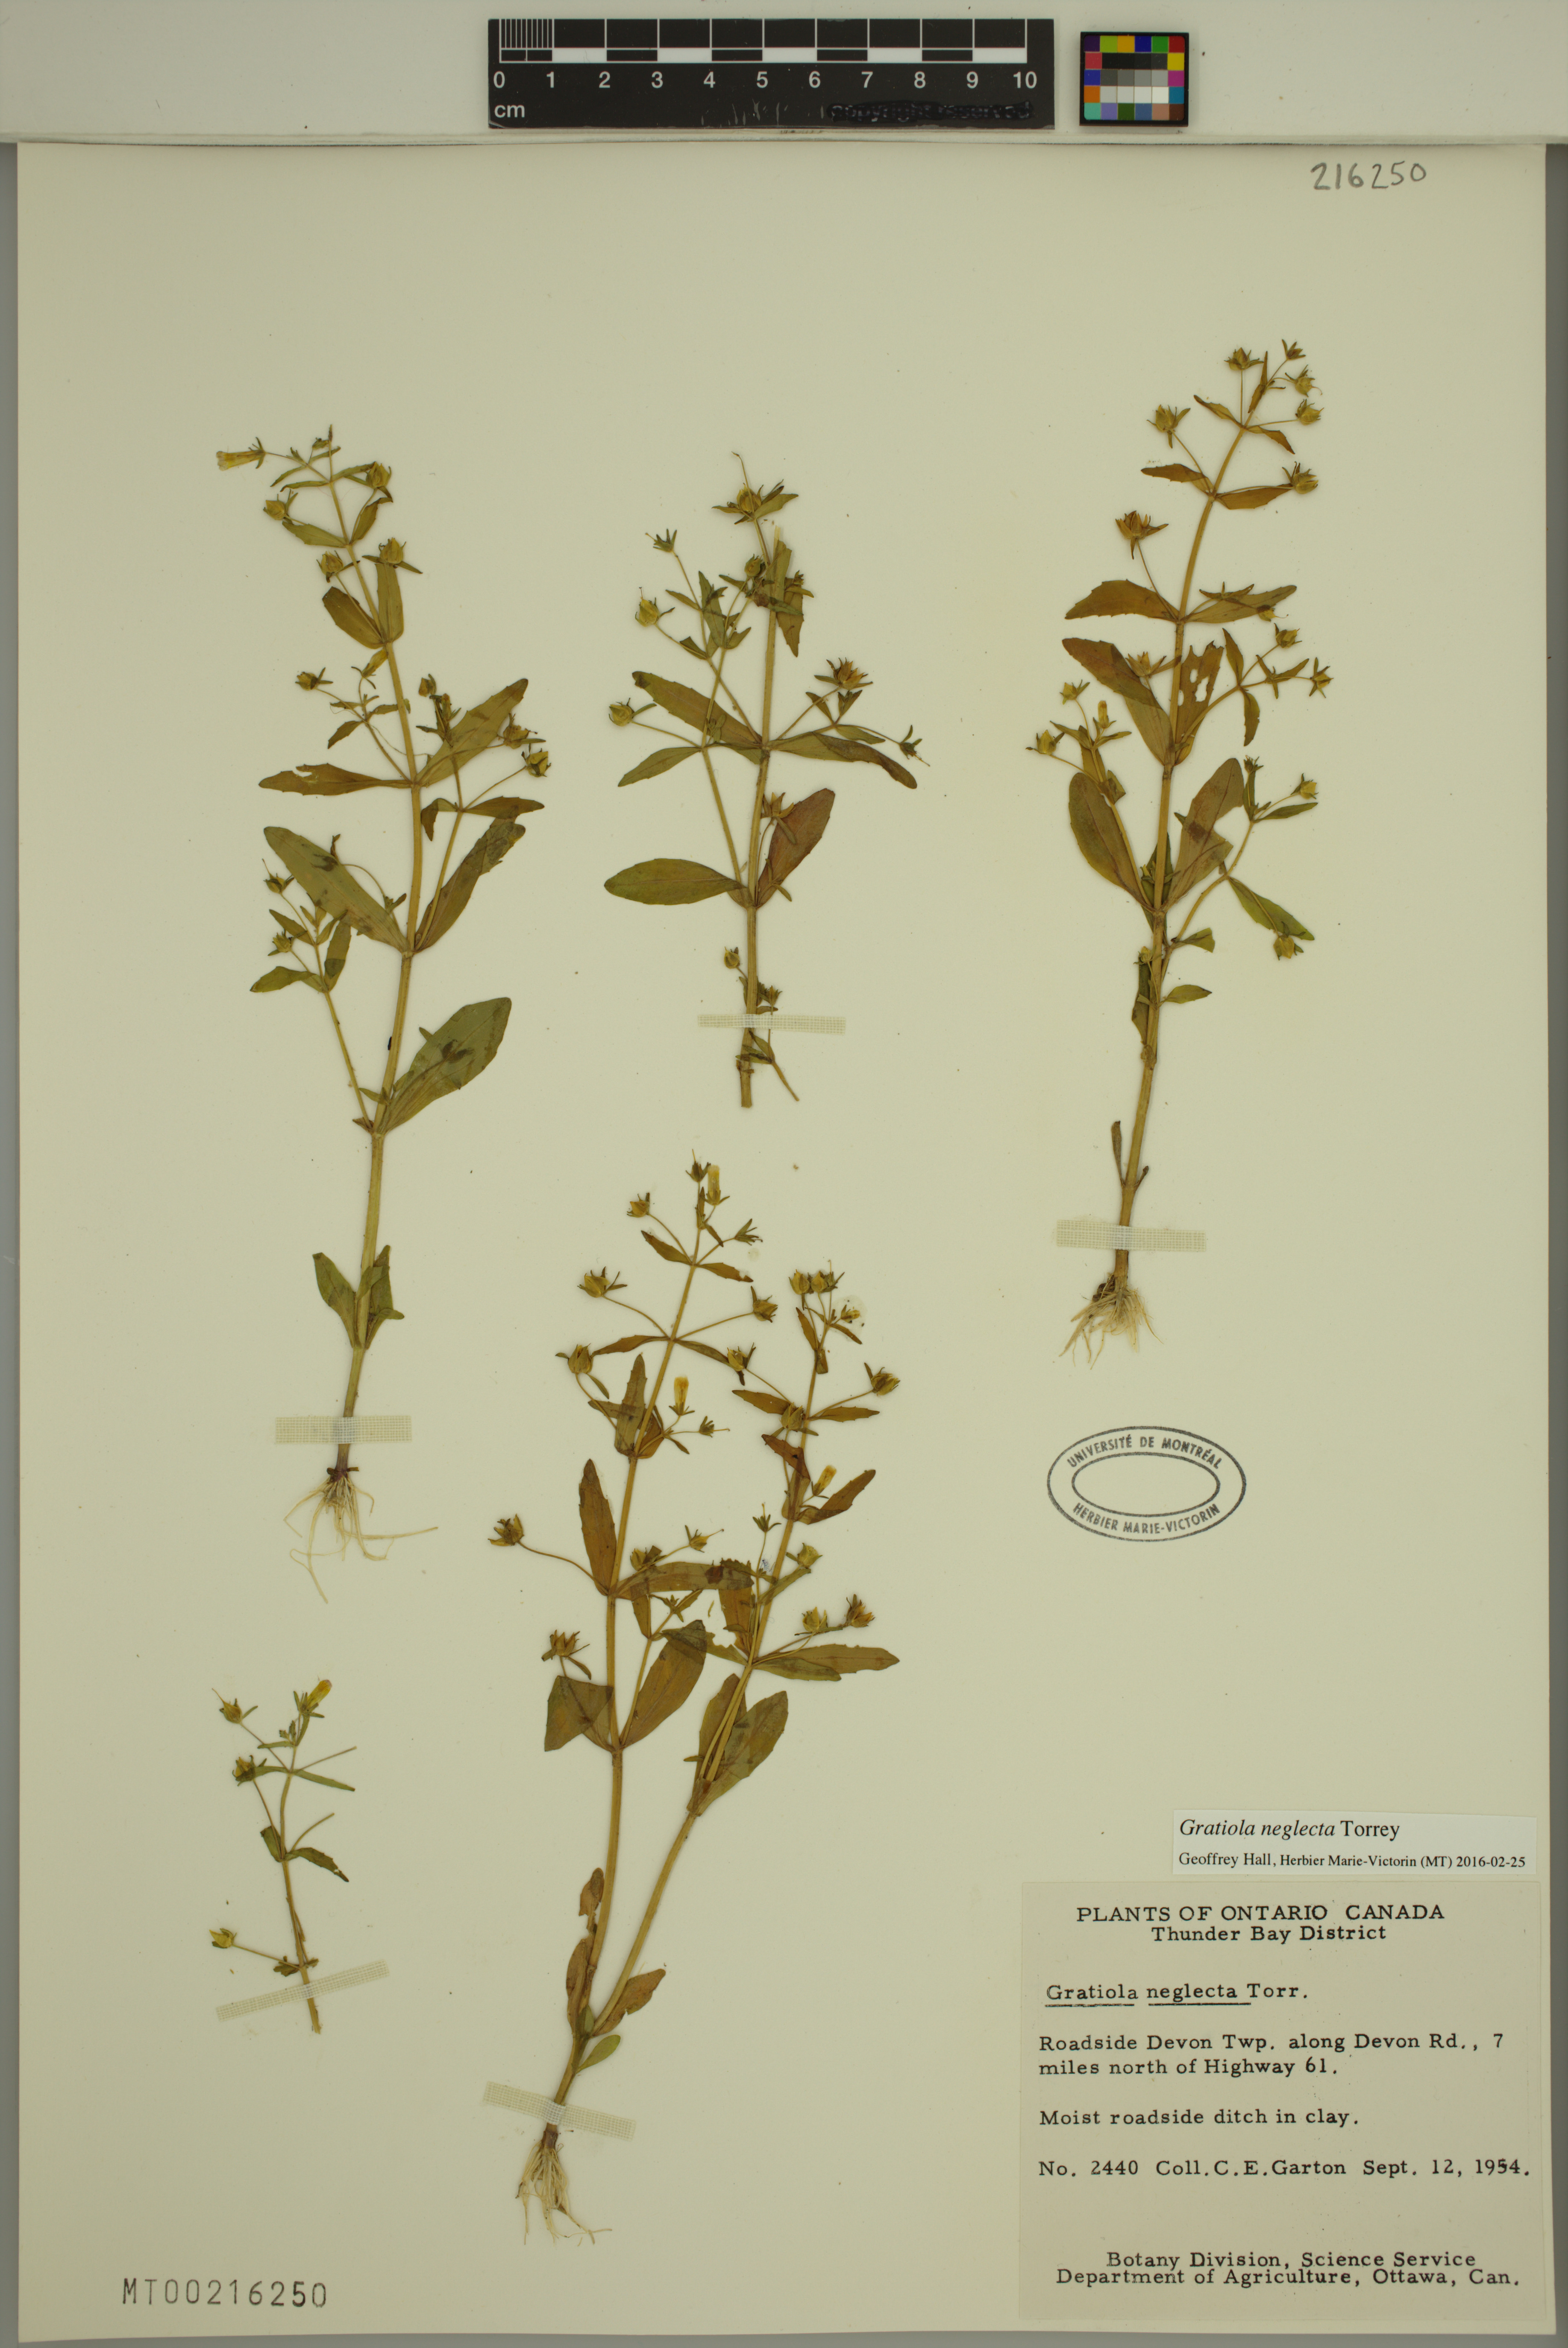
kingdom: Plantae
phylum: Tracheophyta
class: Magnoliopsida
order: Lamiales
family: Plantaginaceae
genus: Gratiola
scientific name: Gratiola neglecta
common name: American hedge-hyssop
